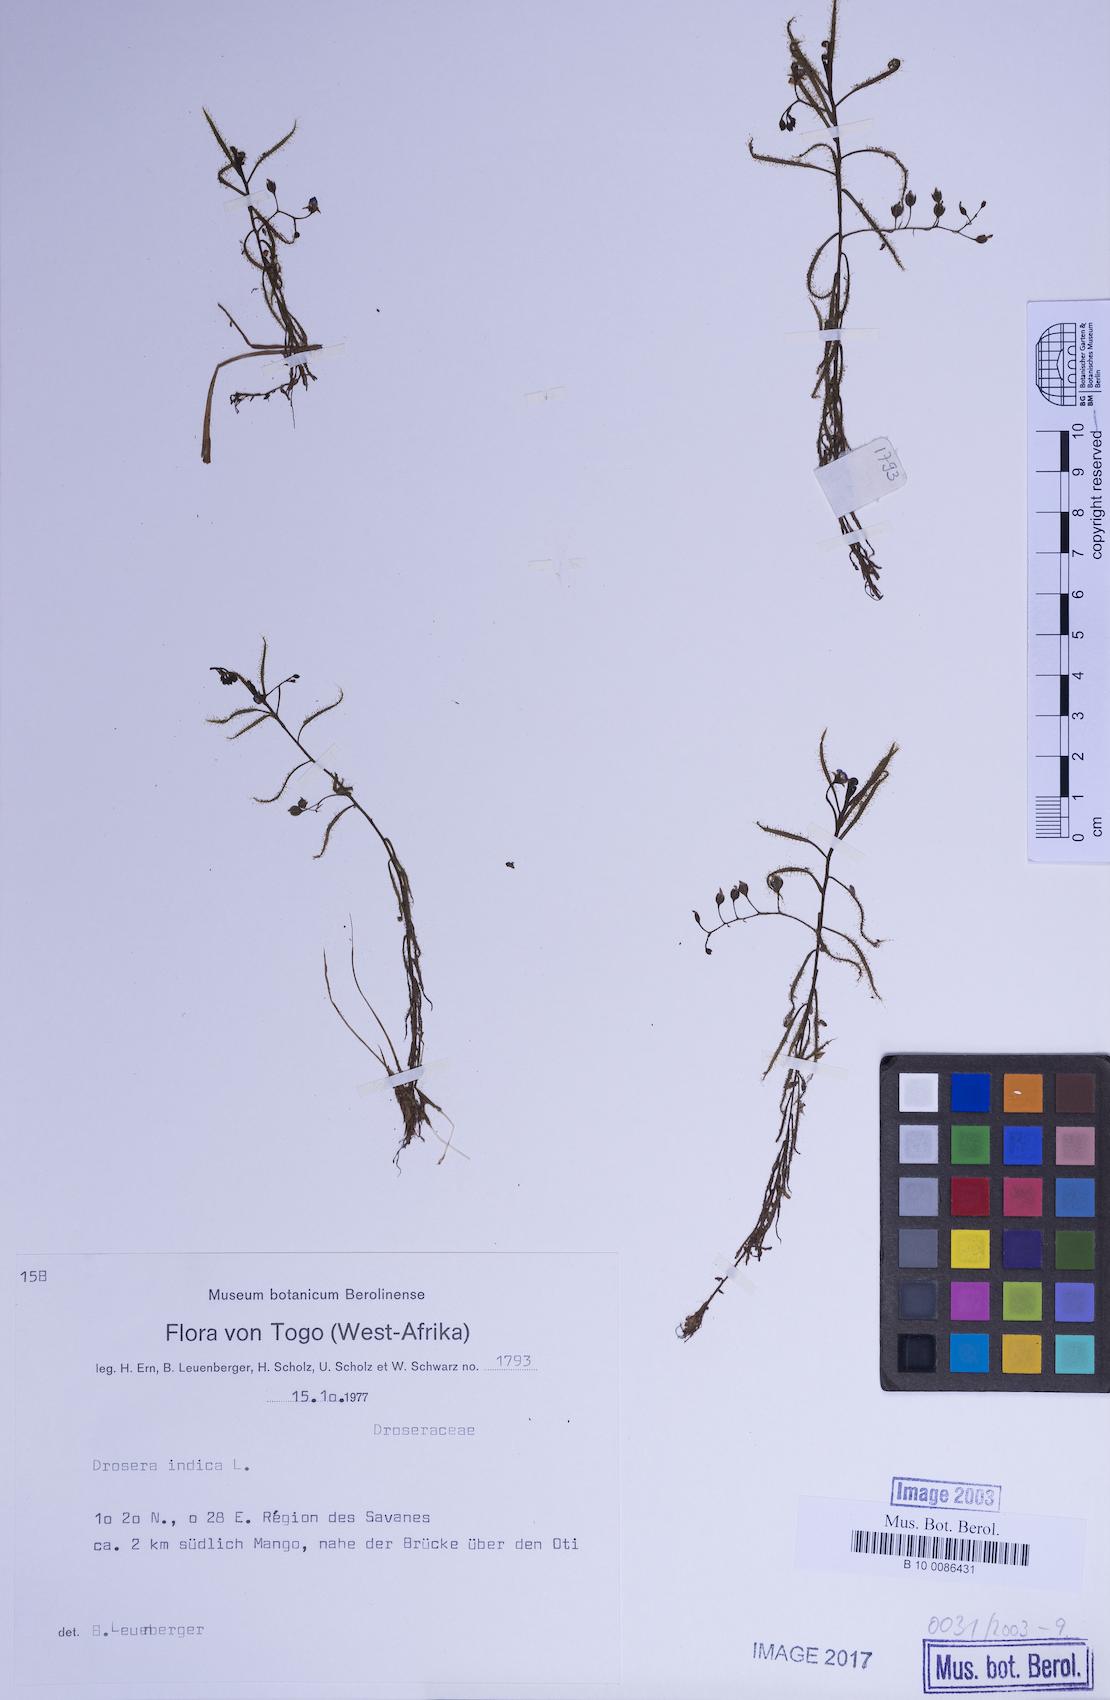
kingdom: Plantae
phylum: Tracheophyta
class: Magnoliopsida
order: Caryophyllales
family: Droseraceae
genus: Drosera
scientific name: Drosera indica
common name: Indian sundew
